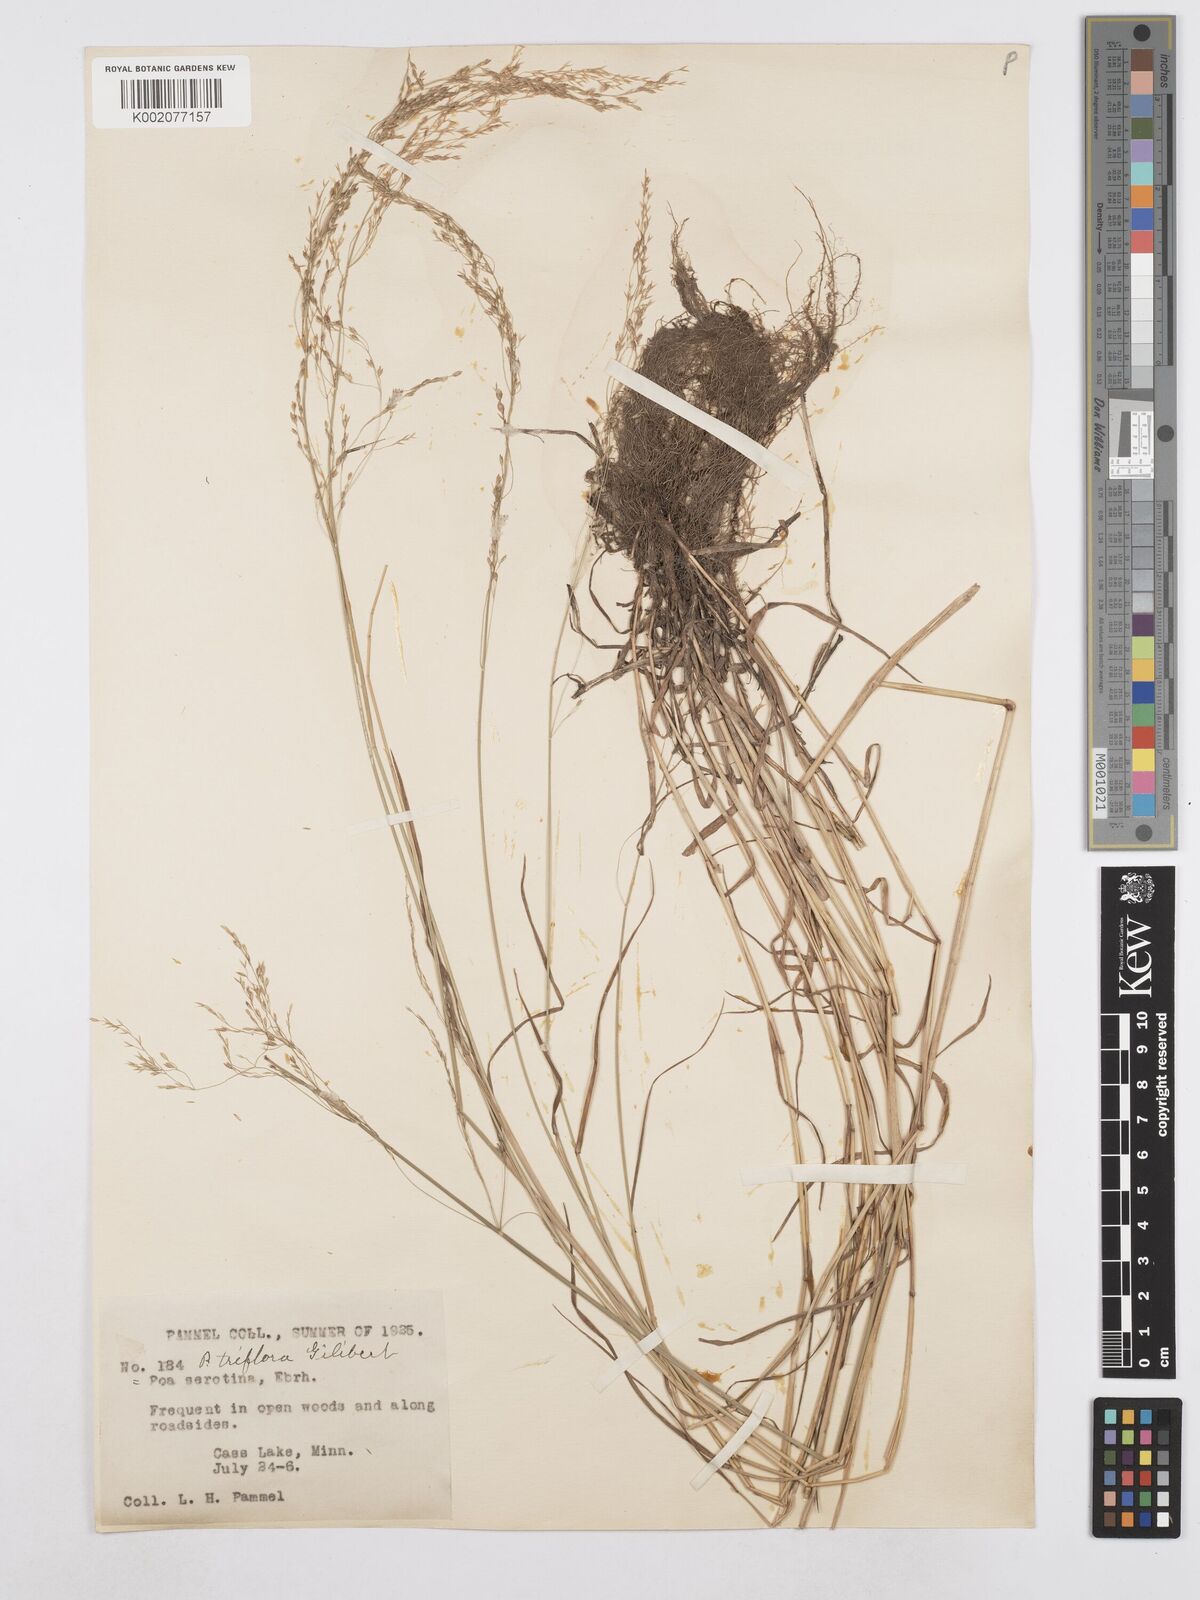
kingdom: Plantae
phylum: Tracheophyta
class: Liliopsida
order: Poales
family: Poaceae
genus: Poa
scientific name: Poa palustris
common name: Swamp meadow-grass
